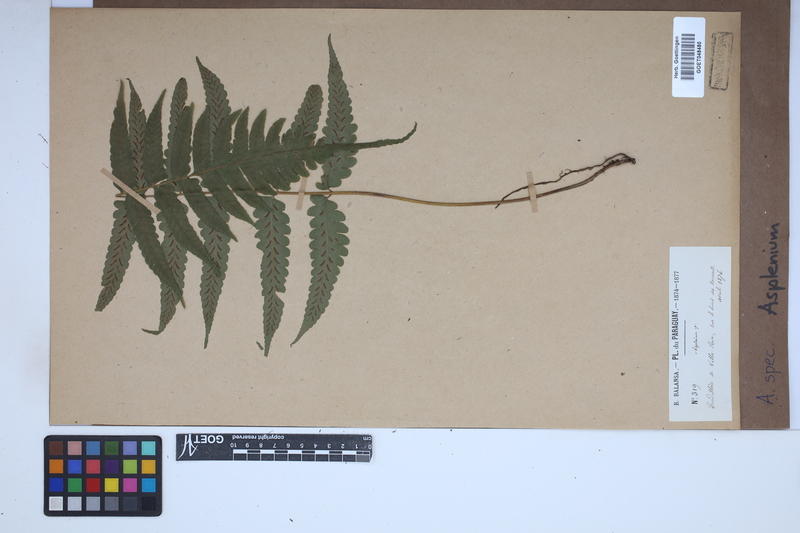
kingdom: Plantae
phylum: Tracheophyta
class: Polypodiopsida
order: Polypodiales
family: Aspleniaceae
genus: Asplenium
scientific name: Asplenium
